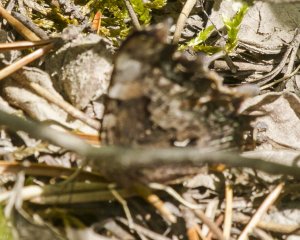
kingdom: Animalia
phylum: Arthropoda
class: Insecta
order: Lepidoptera
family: Nymphalidae
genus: Polygonia
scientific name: Polygonia faunus
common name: Green Comma
